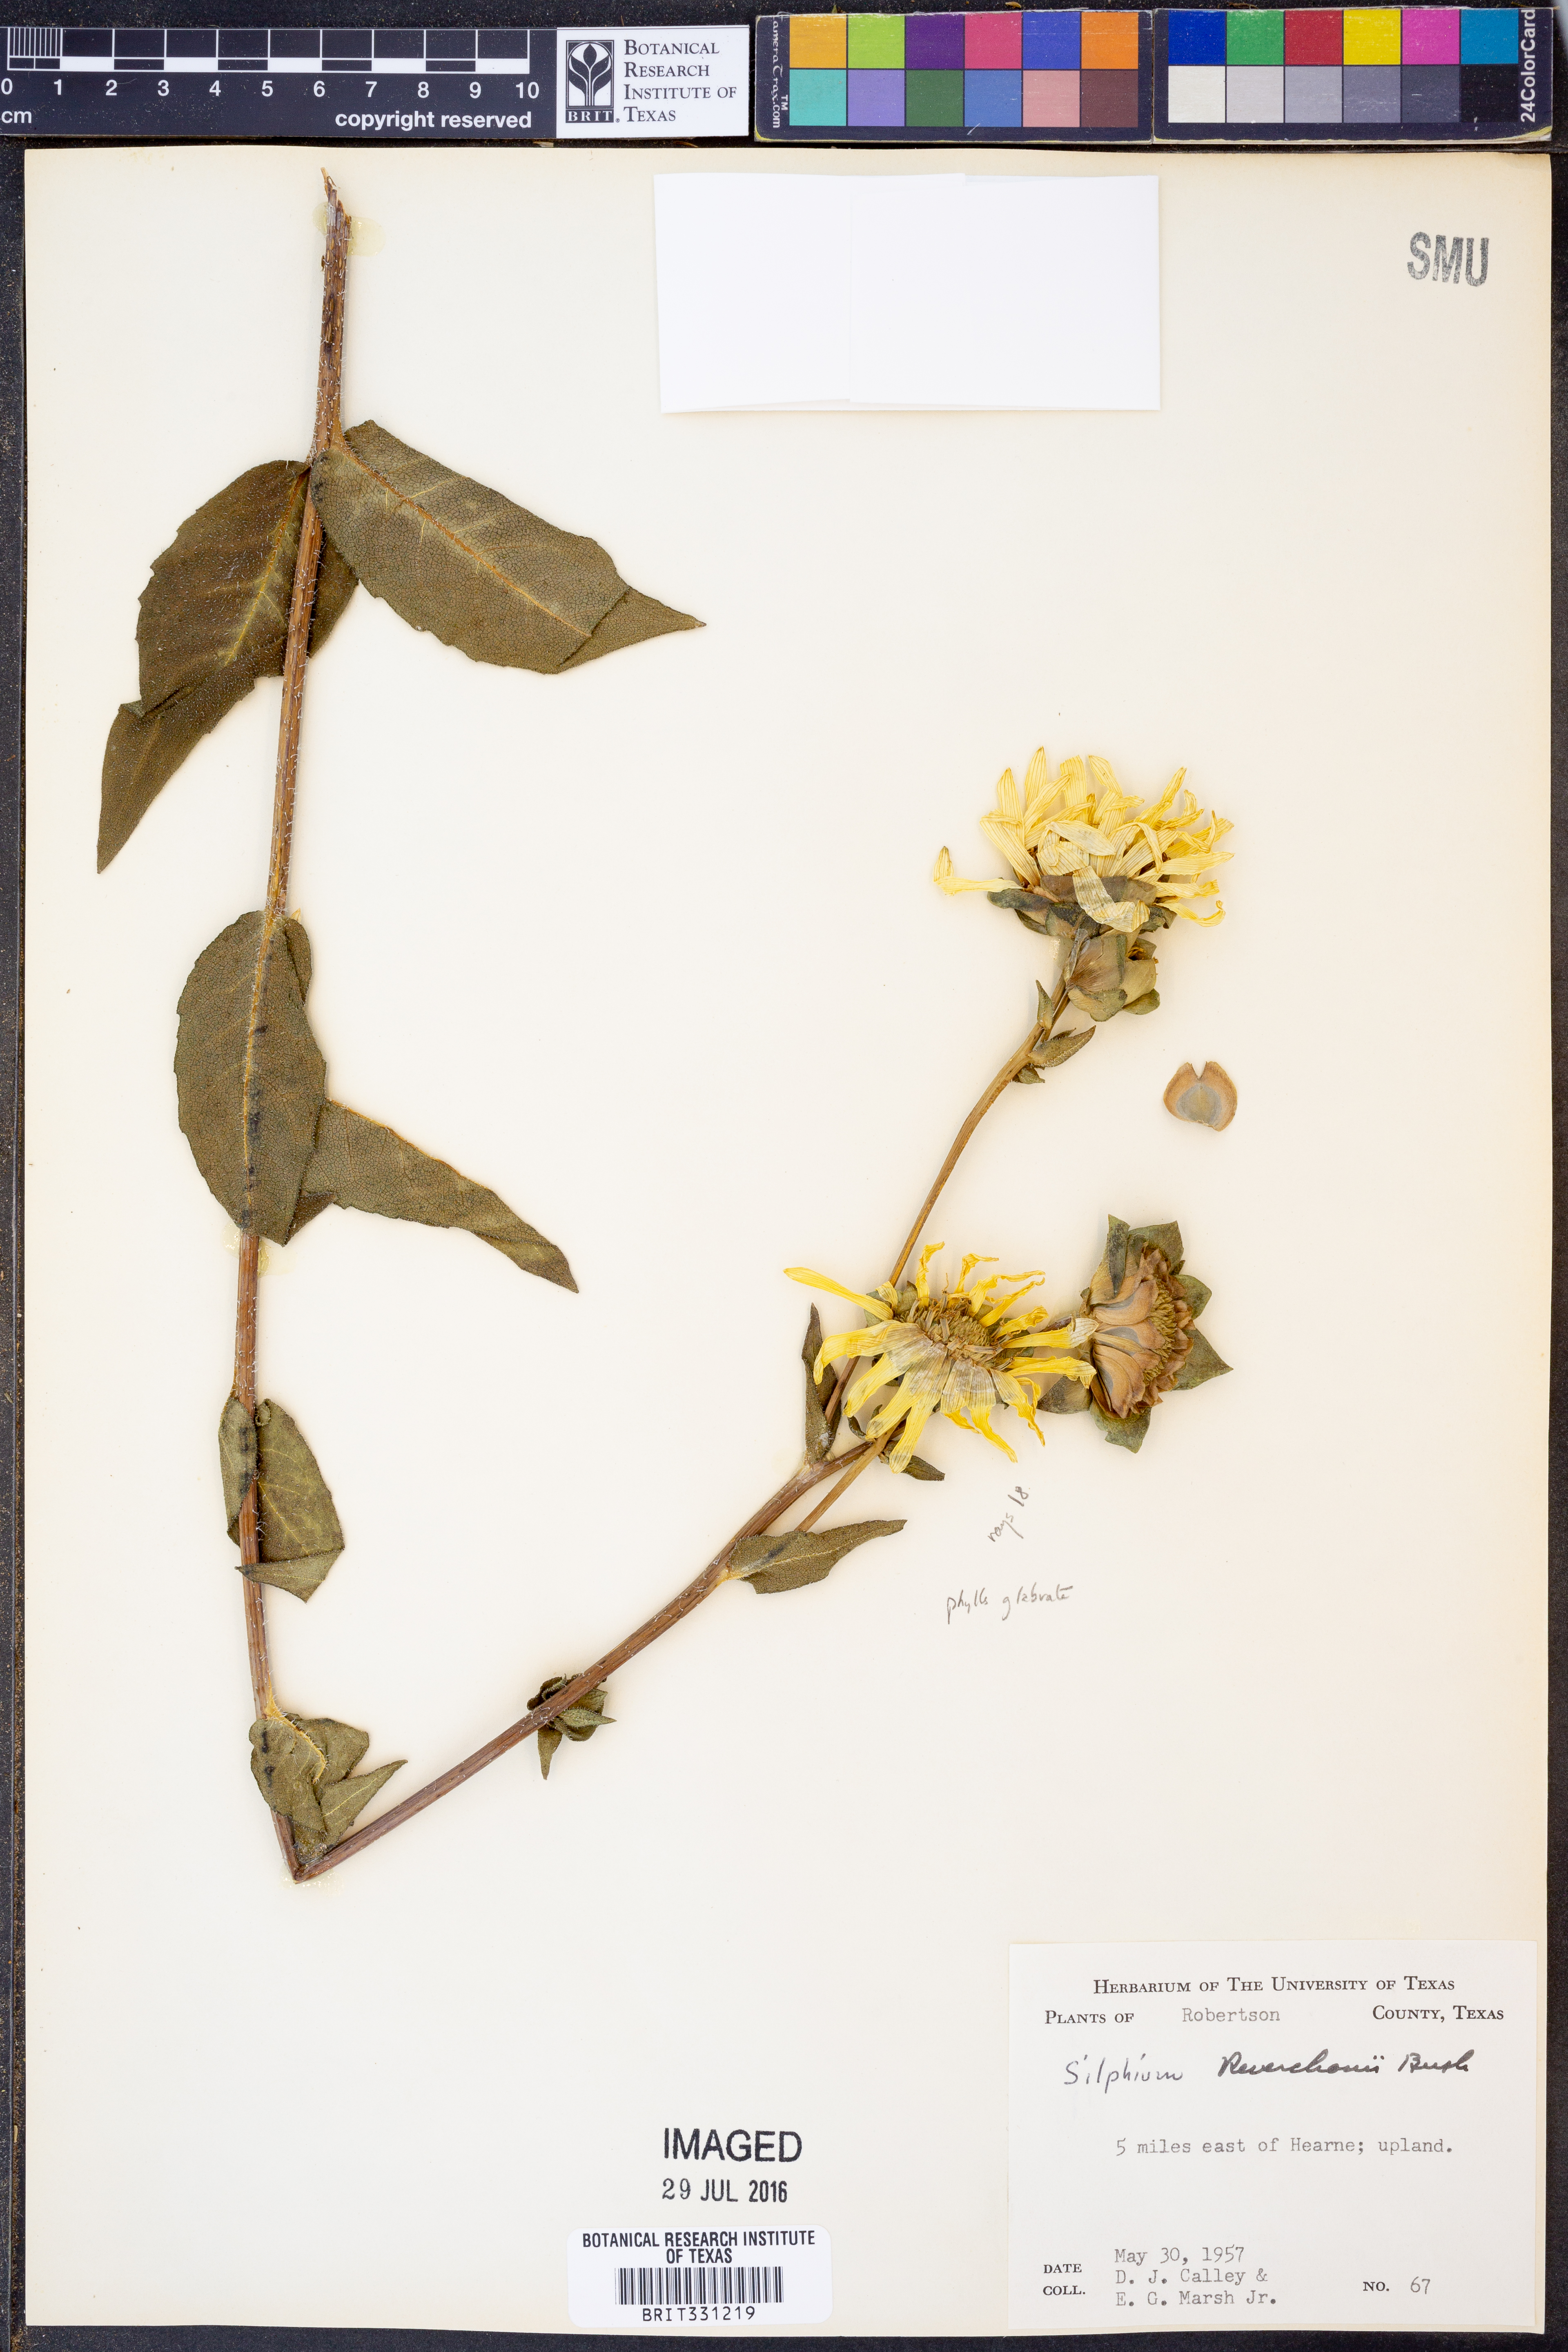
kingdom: Plantae
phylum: Tracheophyta
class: Magnoliopsida
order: Asterales
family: Asteraceae
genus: Silphium
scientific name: Silphium radula
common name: Roughleaf rosinweed
